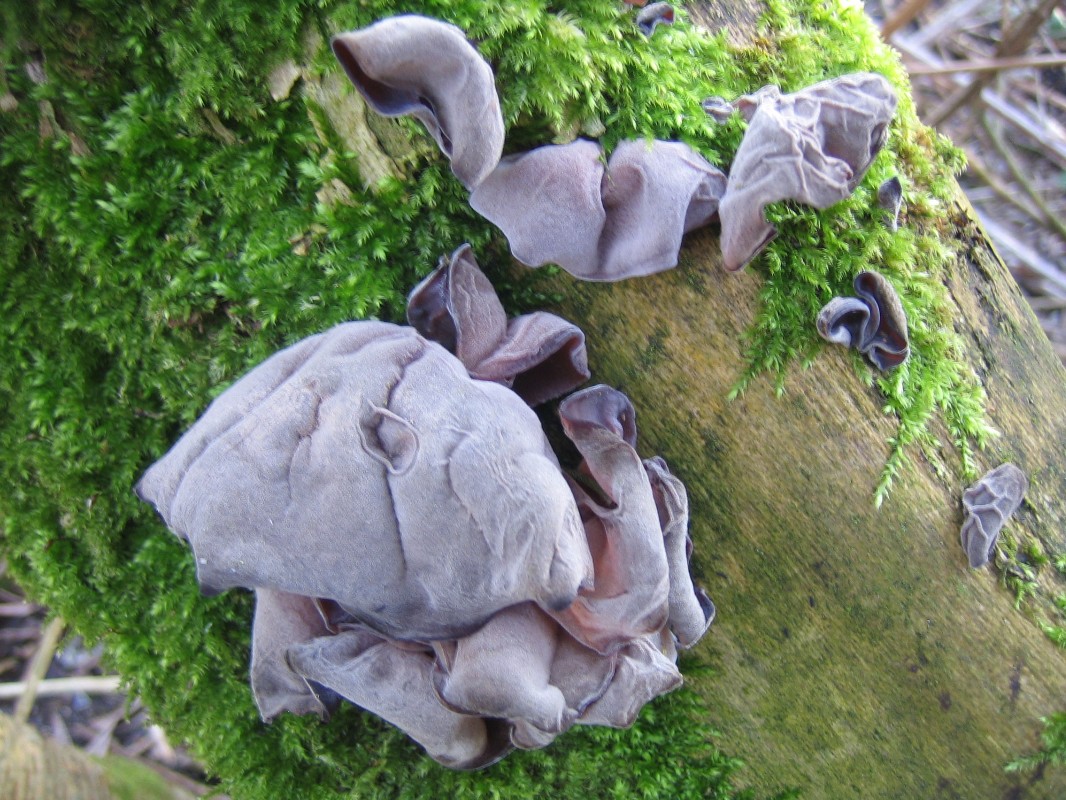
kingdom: Fungi
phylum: Basidiomycota
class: Agaricomycetes
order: Auriculariales
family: Auriculariaceae
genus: Auricularia
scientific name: Auricularia auricula-judae
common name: almindelig judasøre
